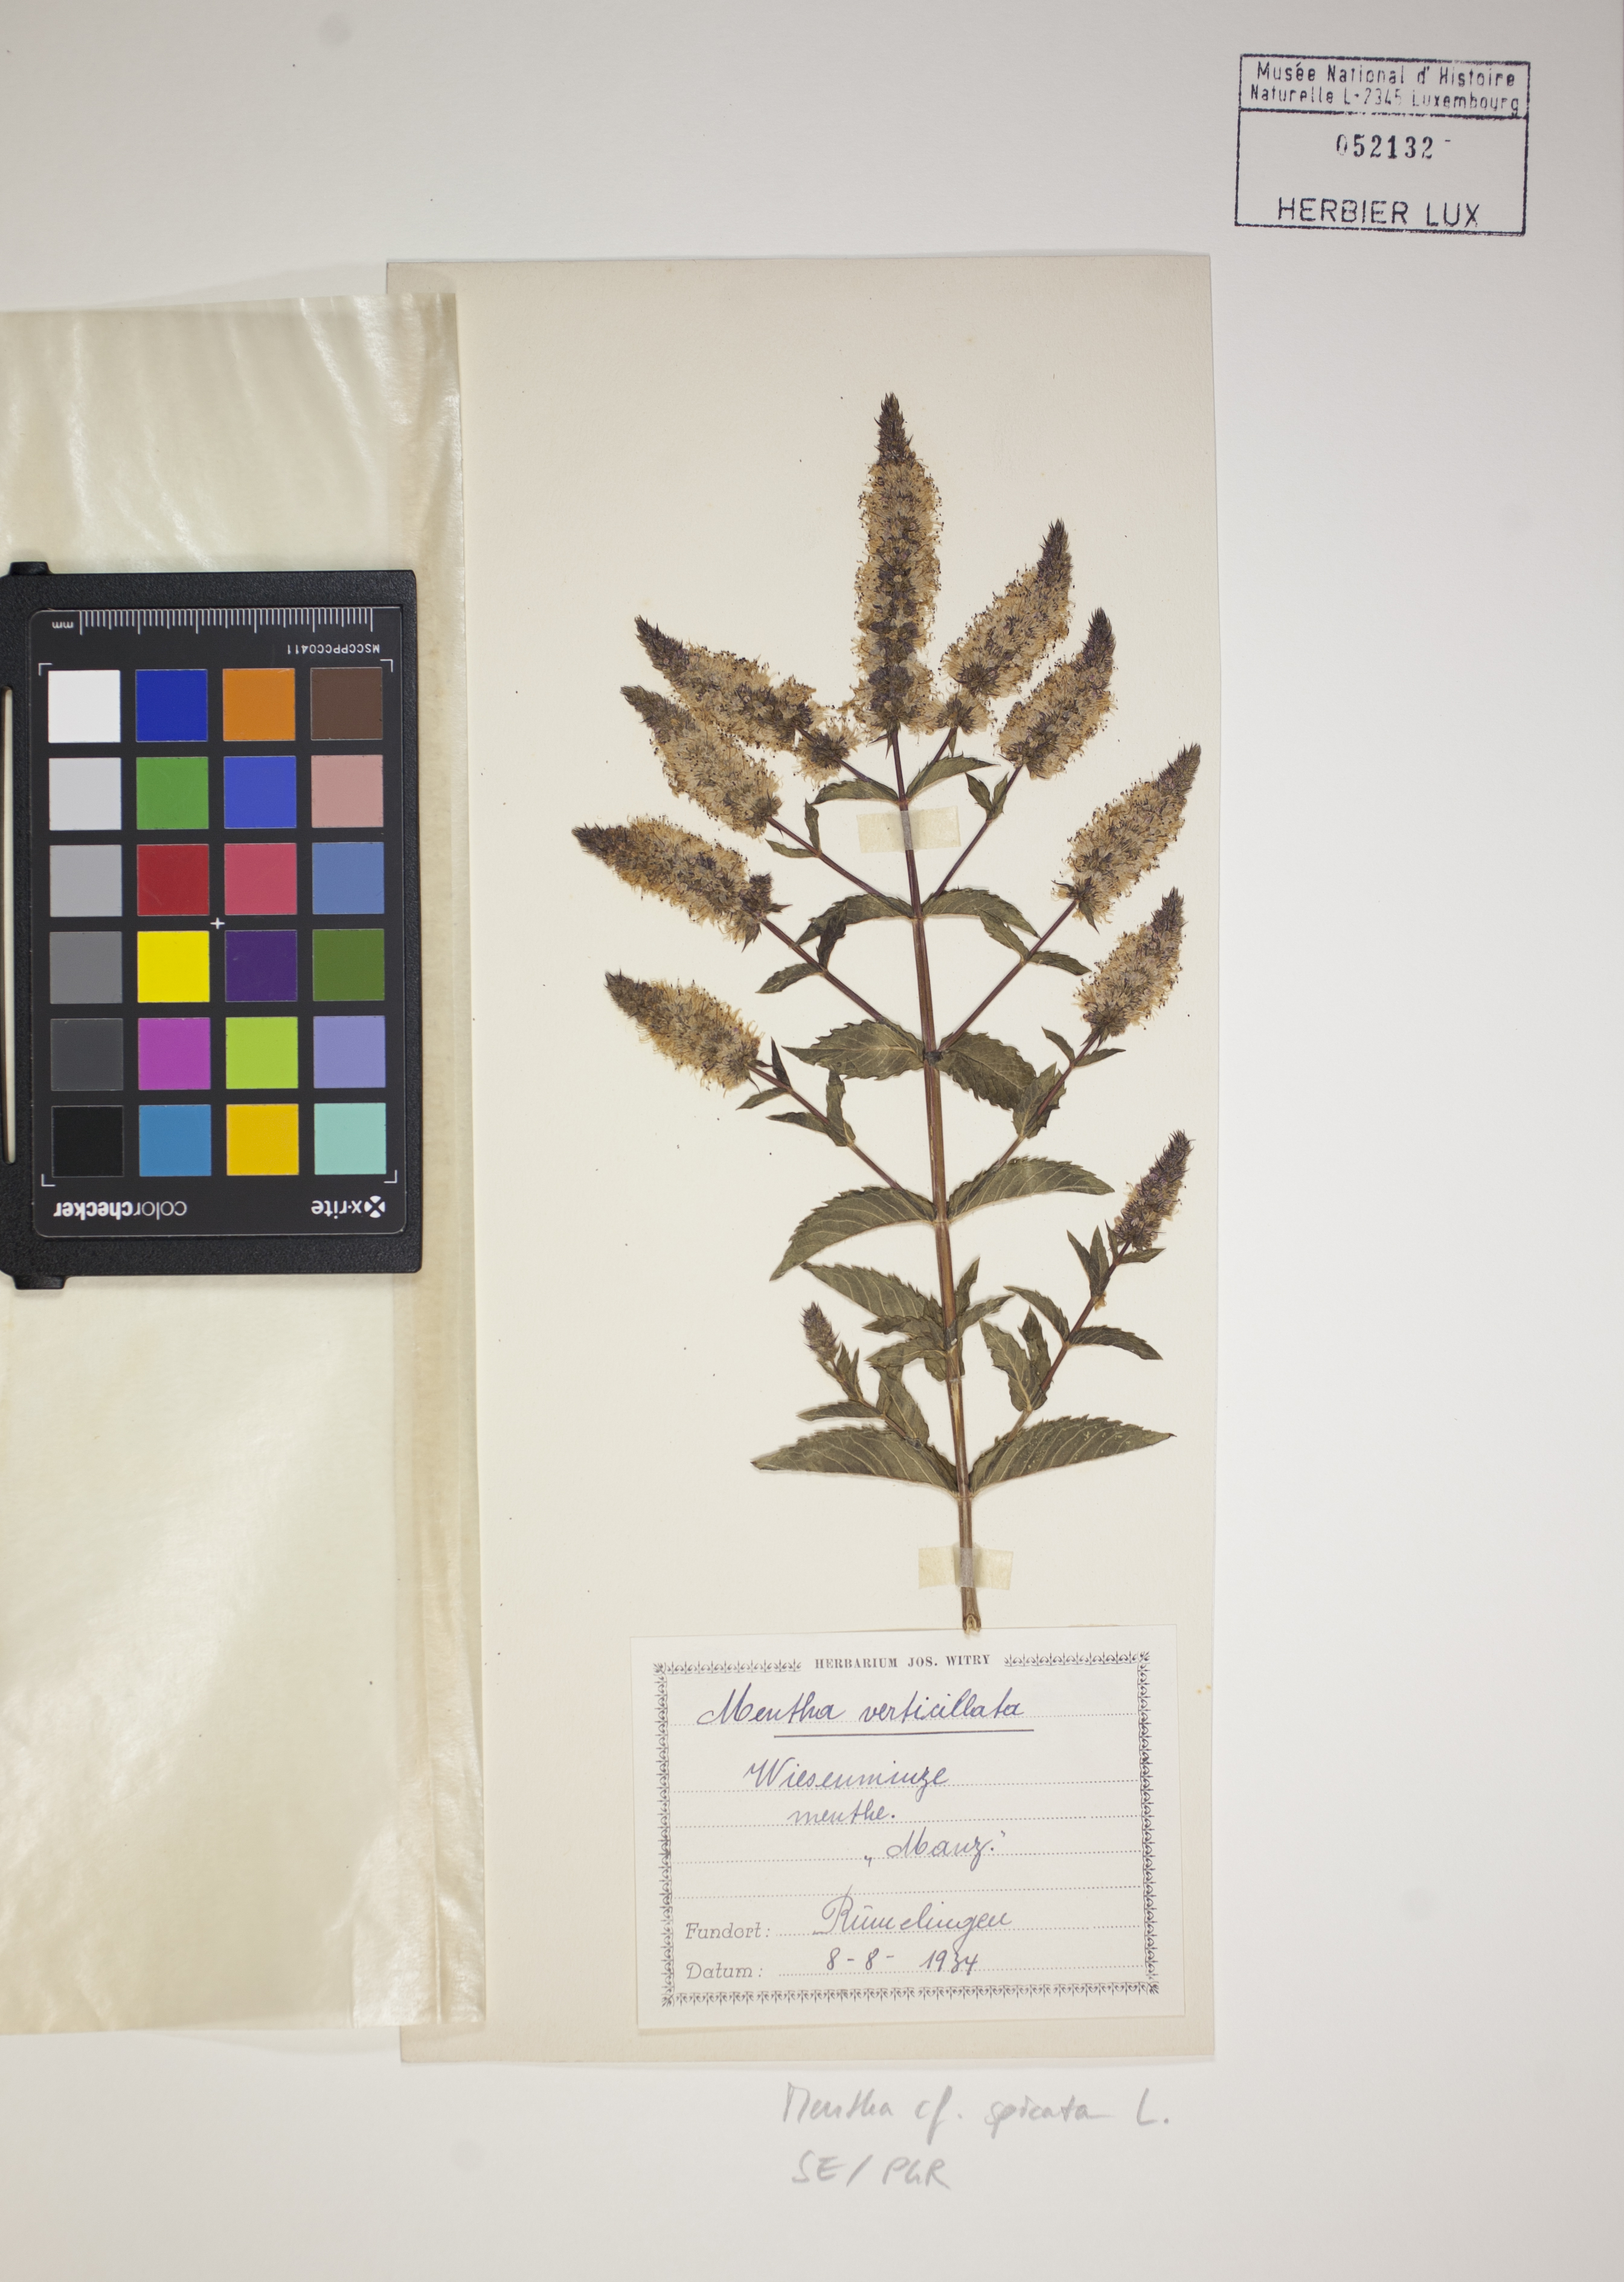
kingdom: Plantae
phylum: Tracheophyta
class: Magnoliopsida
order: Lamiales
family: Lamiaceae
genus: Mentha
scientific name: Mentha spicata
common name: Spearmint
